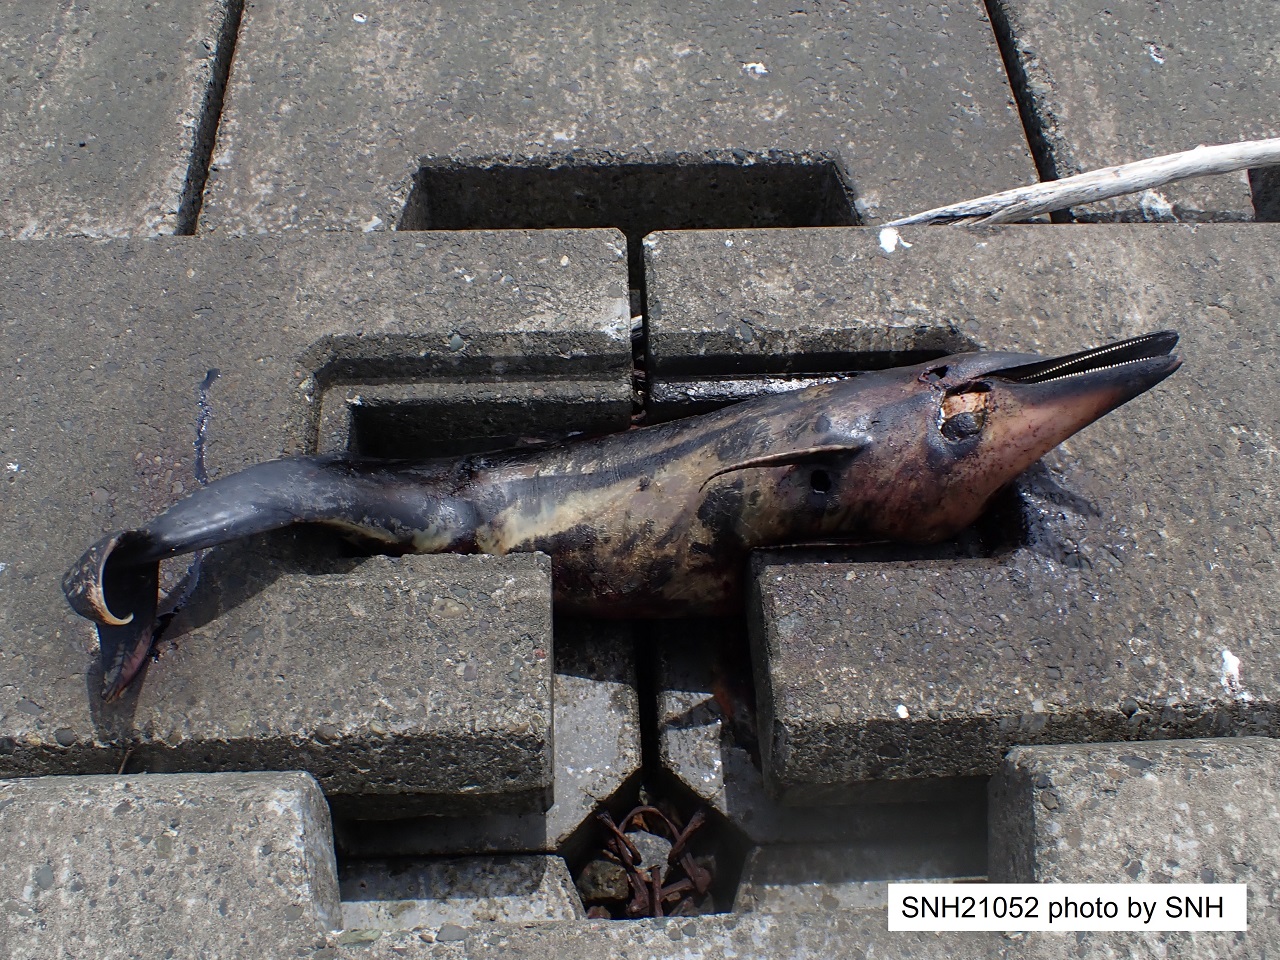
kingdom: Animalia
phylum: Chordata
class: Mammalia
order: Cetacea
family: Delphinidae
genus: Stenella
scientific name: Stenella coeruleoalba
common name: Striped dolphin
